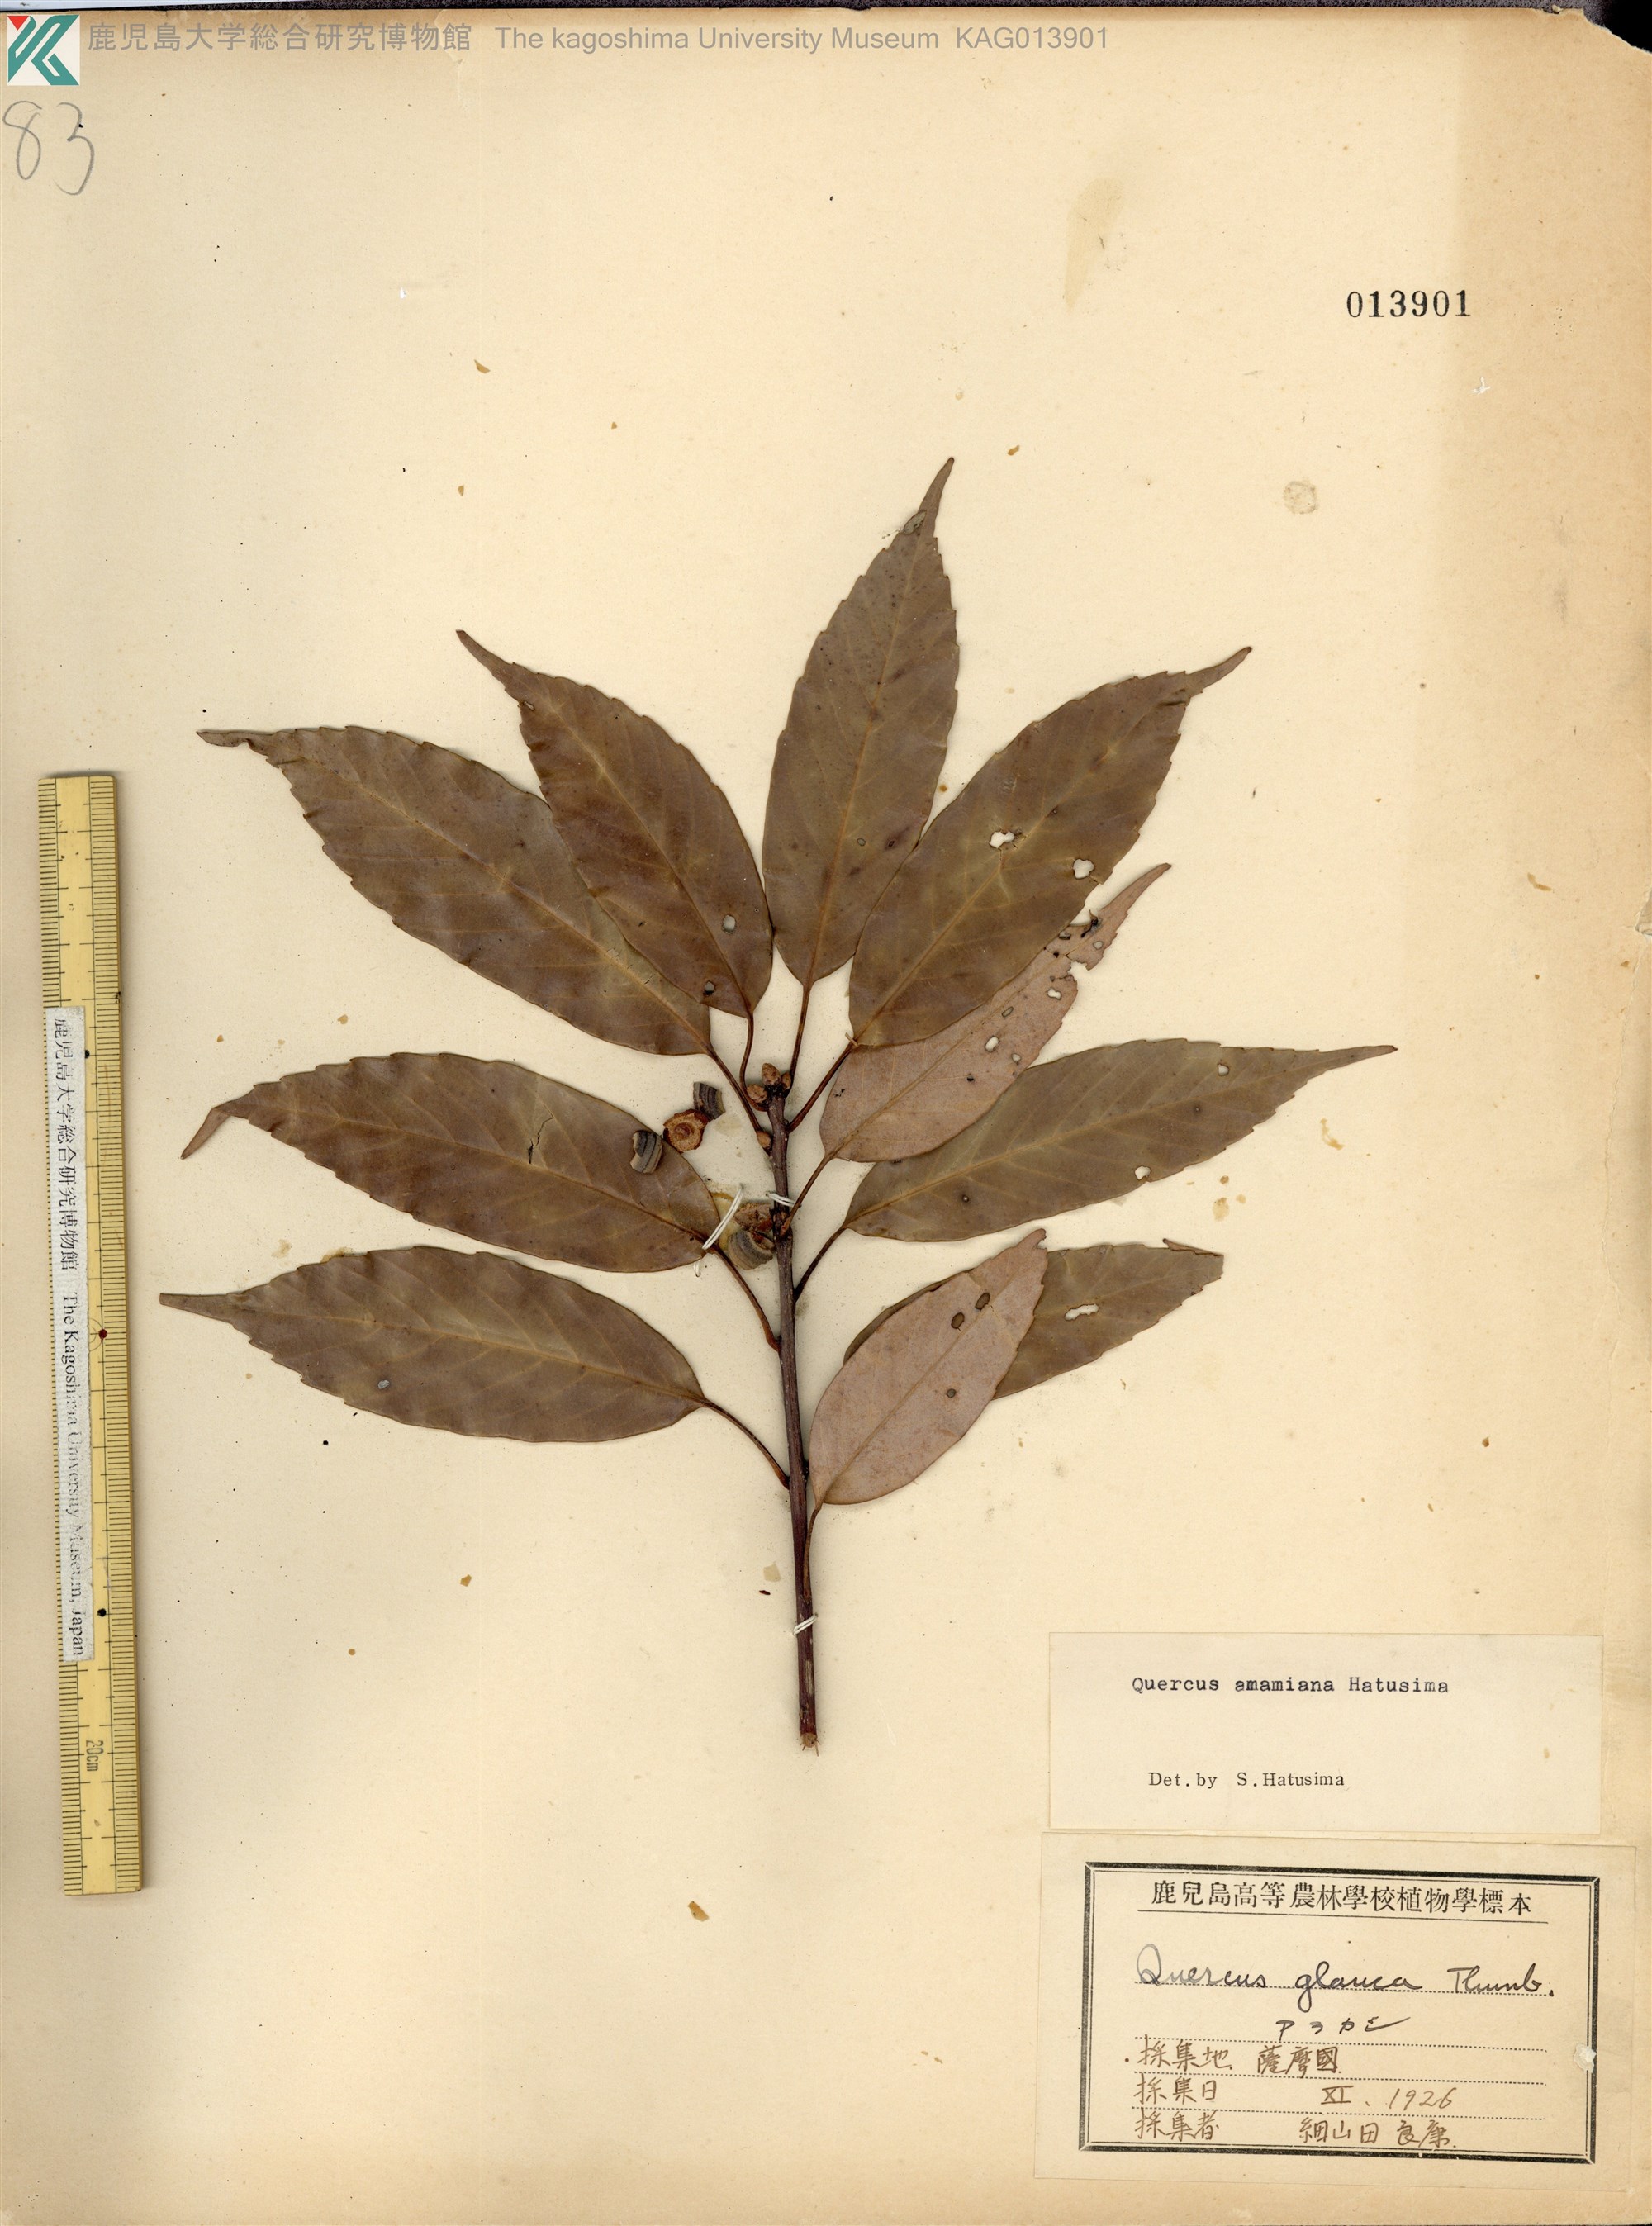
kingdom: Plantae
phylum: Tracheophyta
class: Magnoliopsida
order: Fagales
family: Fagaceae
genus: Quercus
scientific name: Quercus glauca
